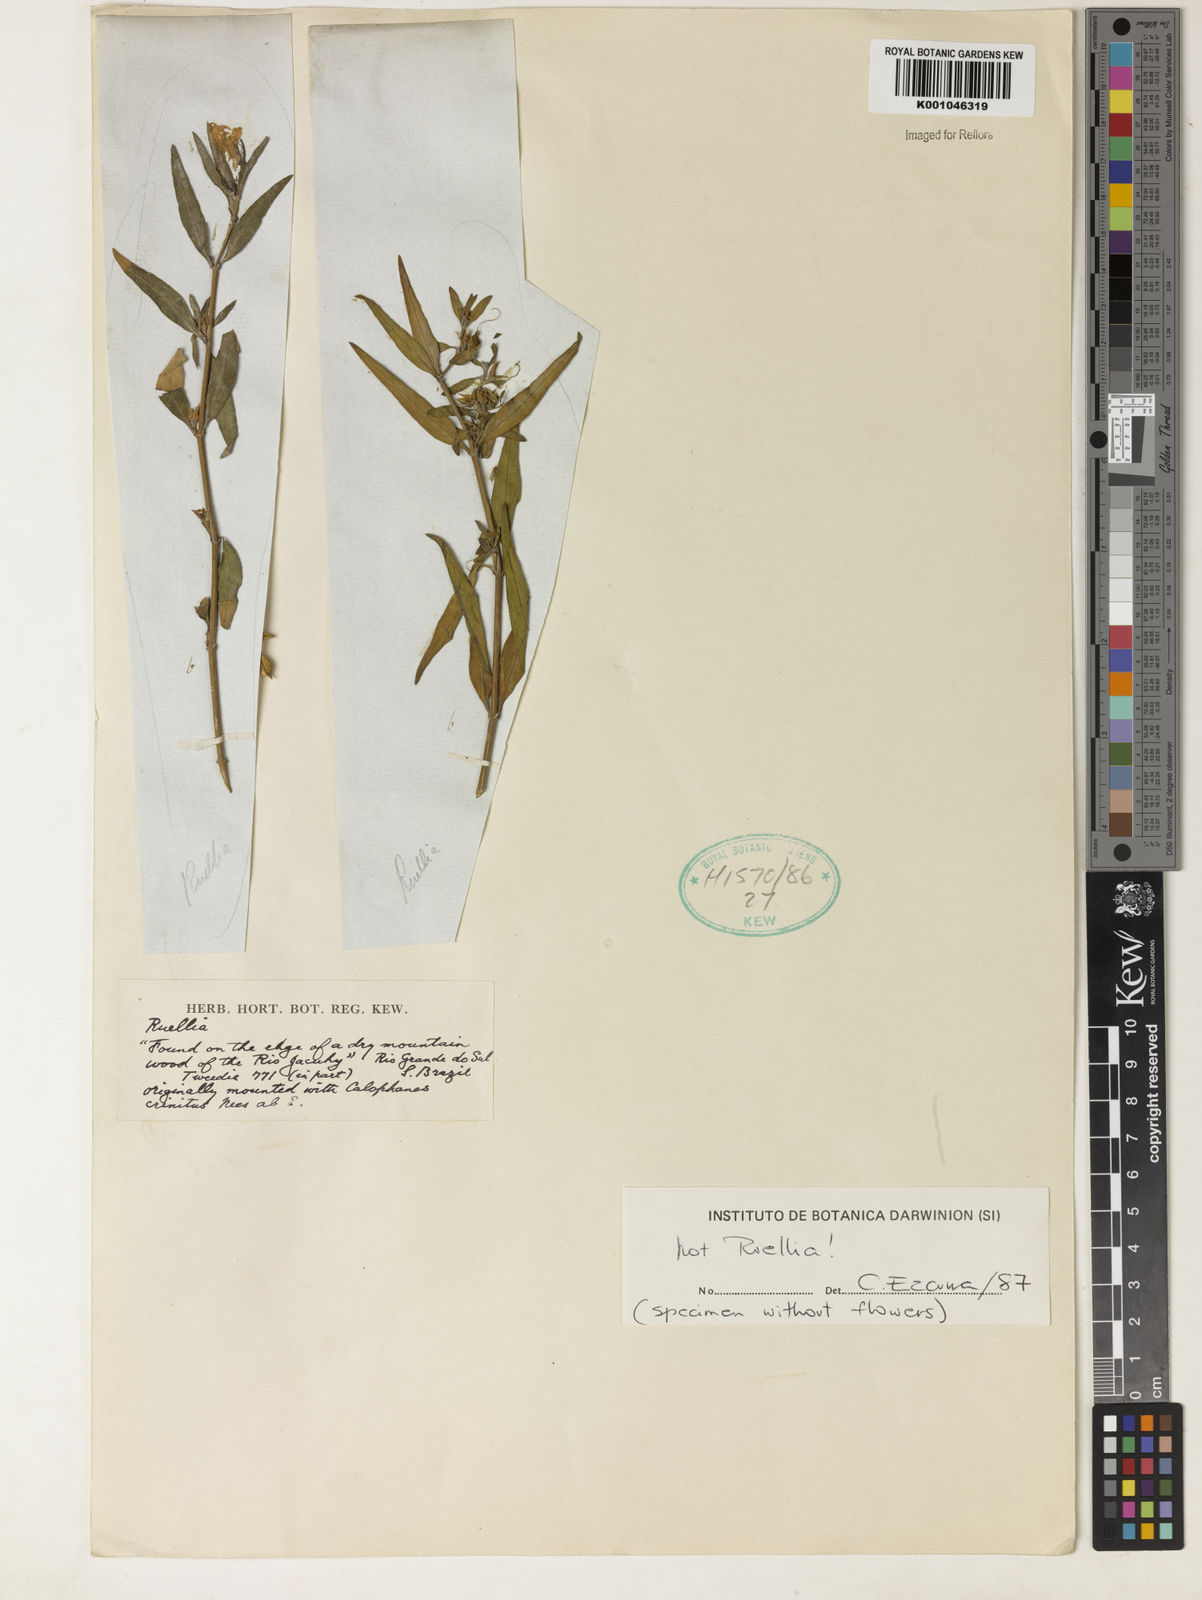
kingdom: Plantae
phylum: Tracheophyta
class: Magnoliopsida
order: Lamiales
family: Acanthaceae
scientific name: Acanthaceae
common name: Acanthaceae
